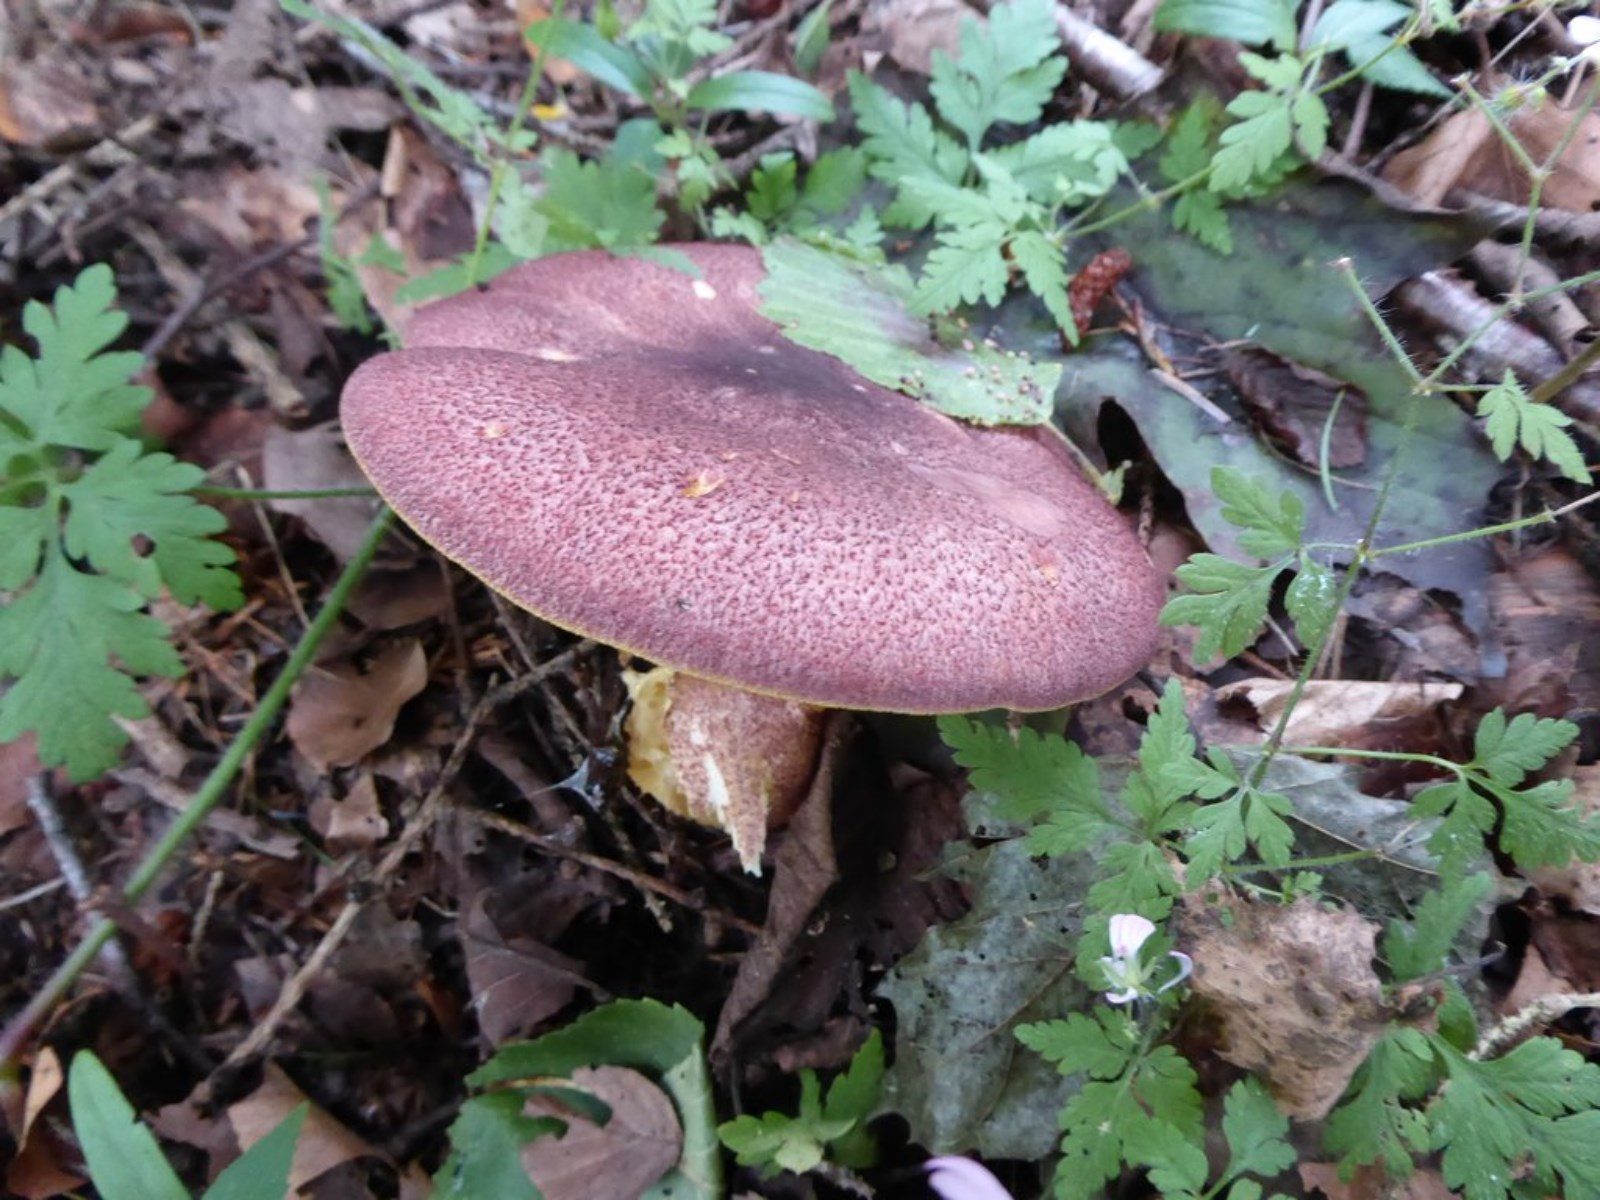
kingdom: Fungi
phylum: Basidiomycota
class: Agaricomycetes
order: Agaricales
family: Tricholomataceae
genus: Tricholomopsis
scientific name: Tricholomopsis rutilans
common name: purpur-væbnerhat
